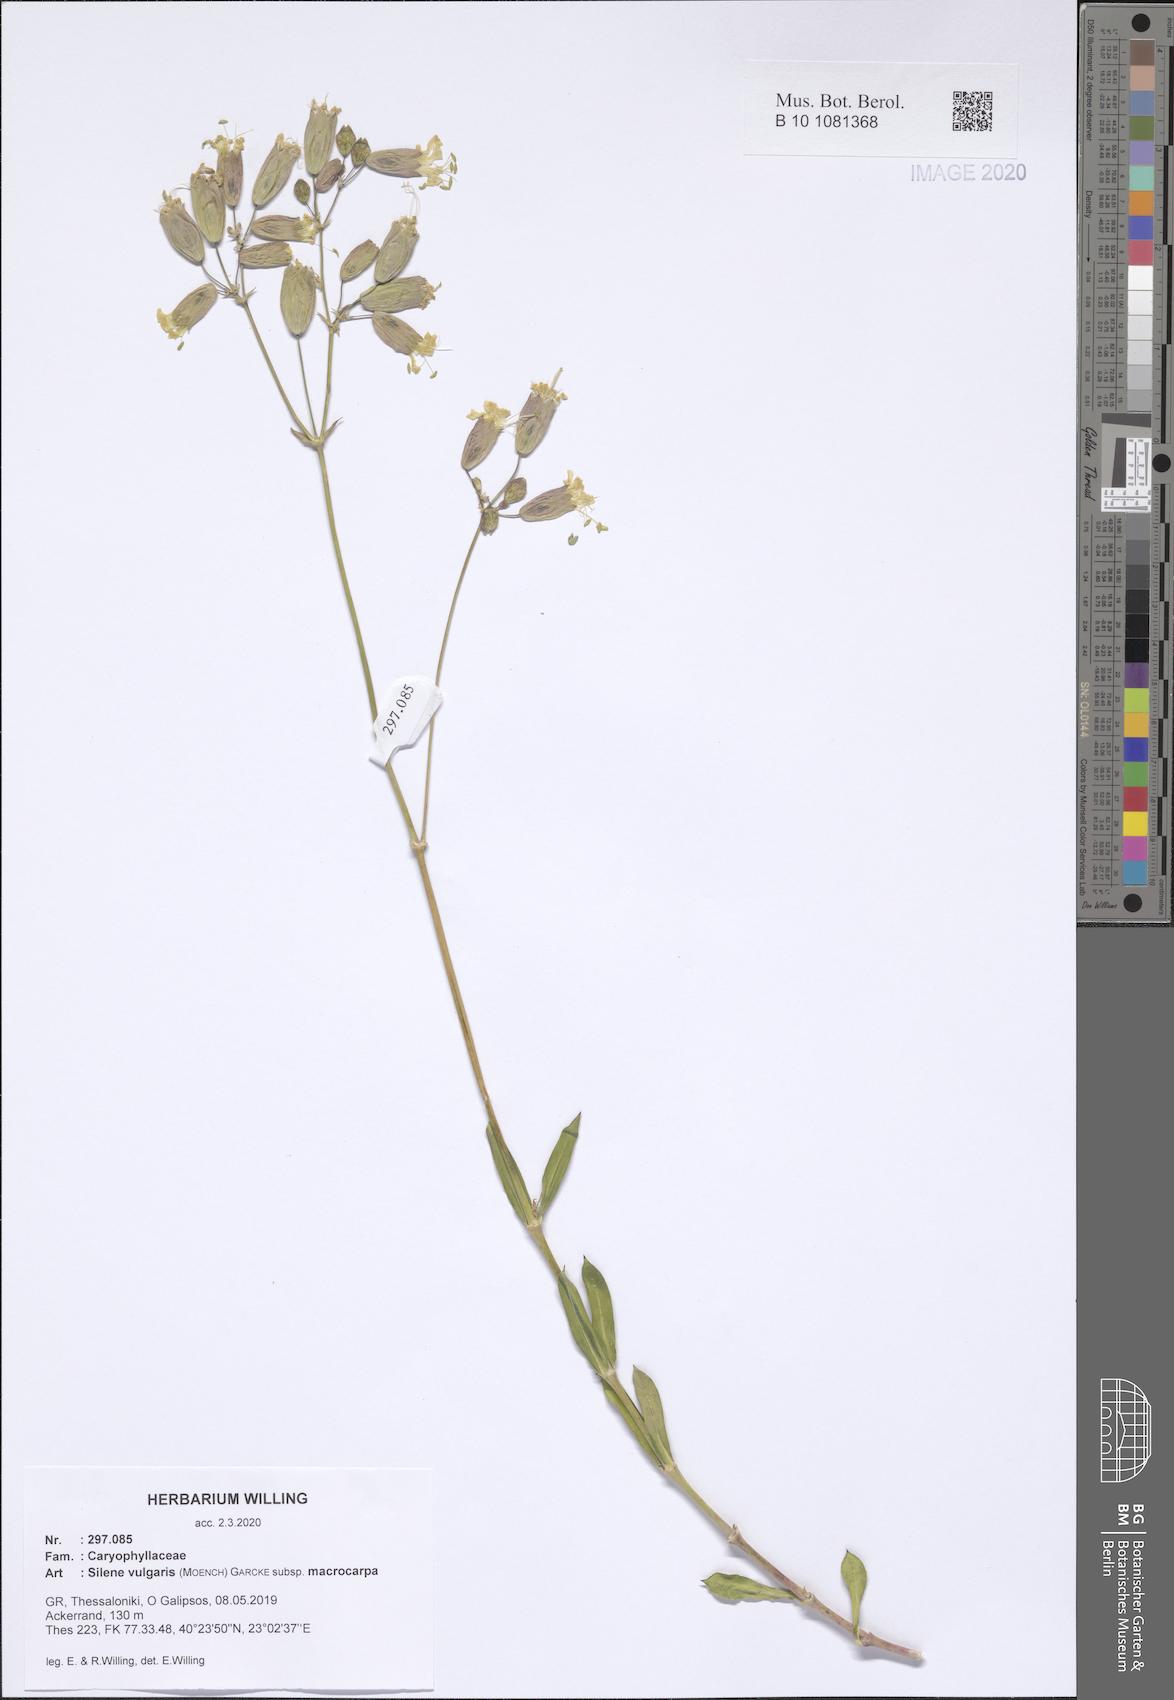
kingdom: Plantae
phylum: Tracheophyta
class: Magnoliopsida
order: Caryophyllales
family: Caryophyllaceae
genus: Silene
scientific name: Silene vulgaris
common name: Bladder campion
